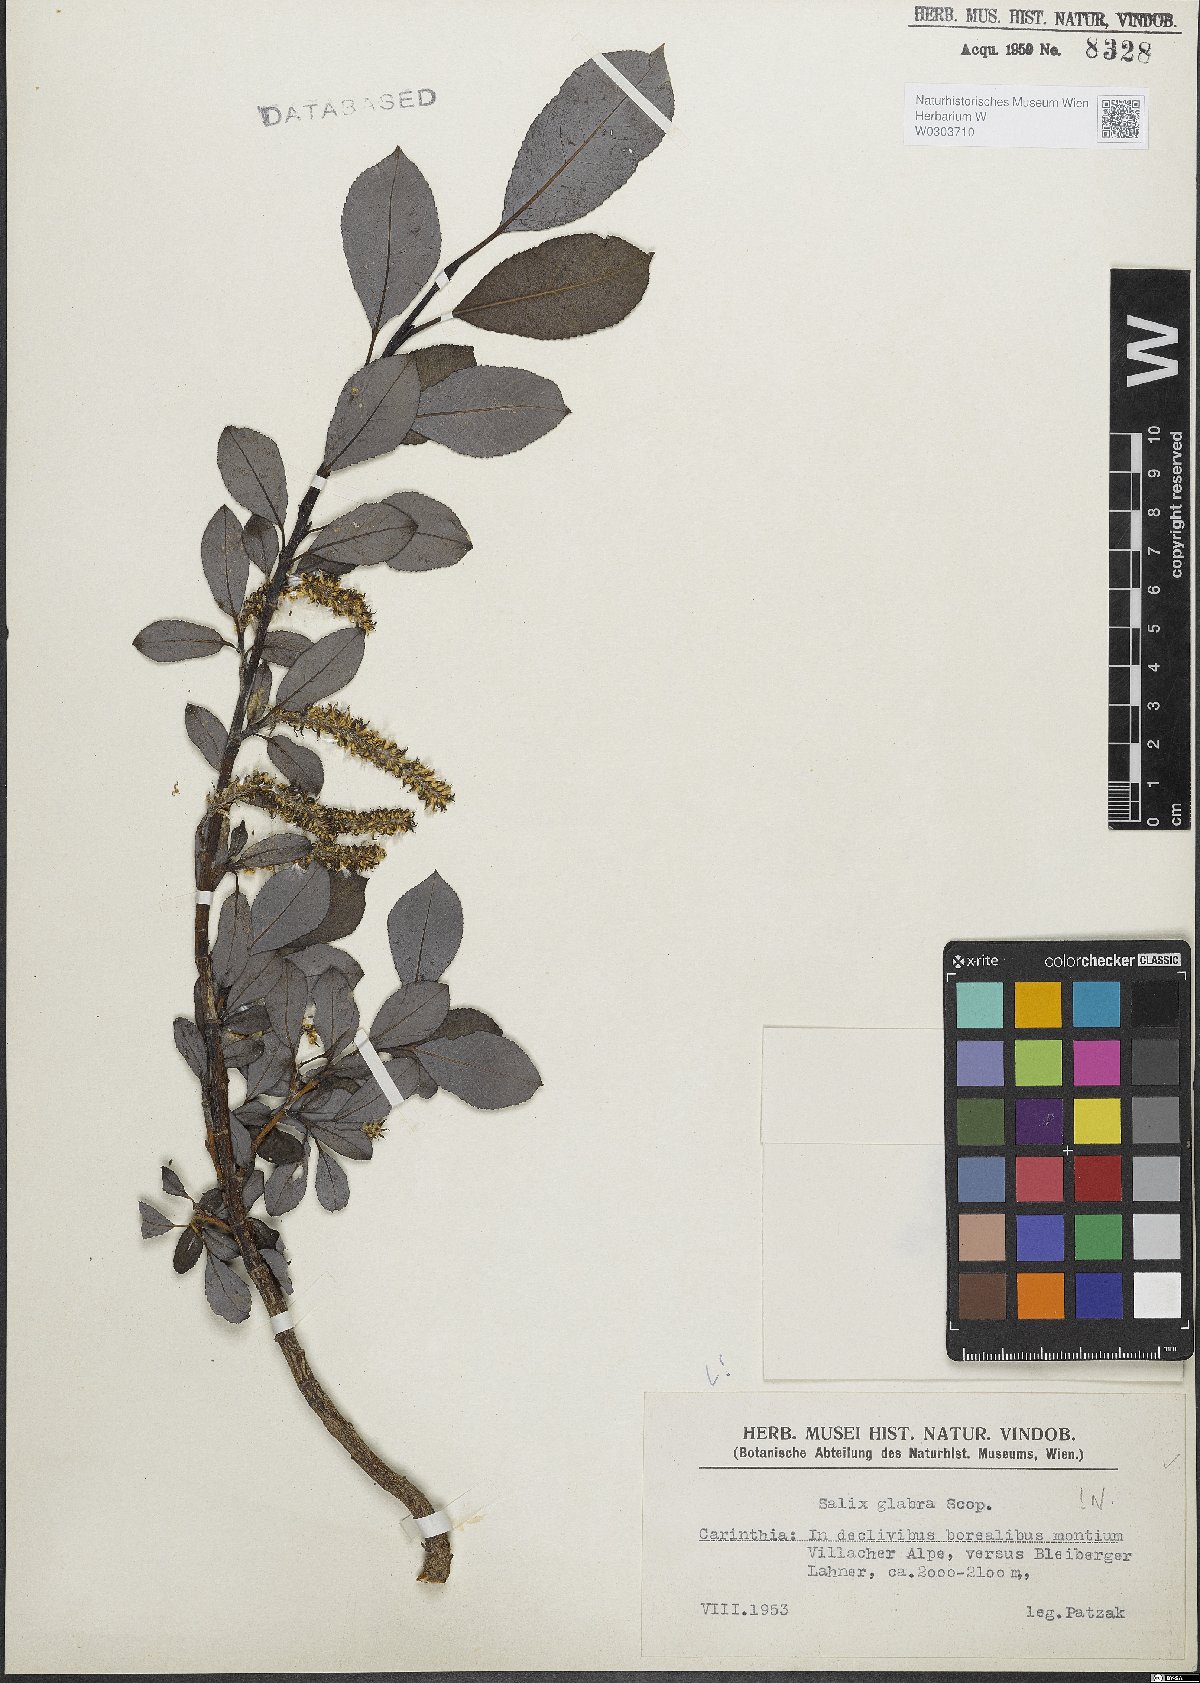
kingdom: Plantae
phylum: Tracheophyta
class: Magnoliopsida
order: Malpighiales
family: Salicaceae
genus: Salix
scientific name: Salix glabra
